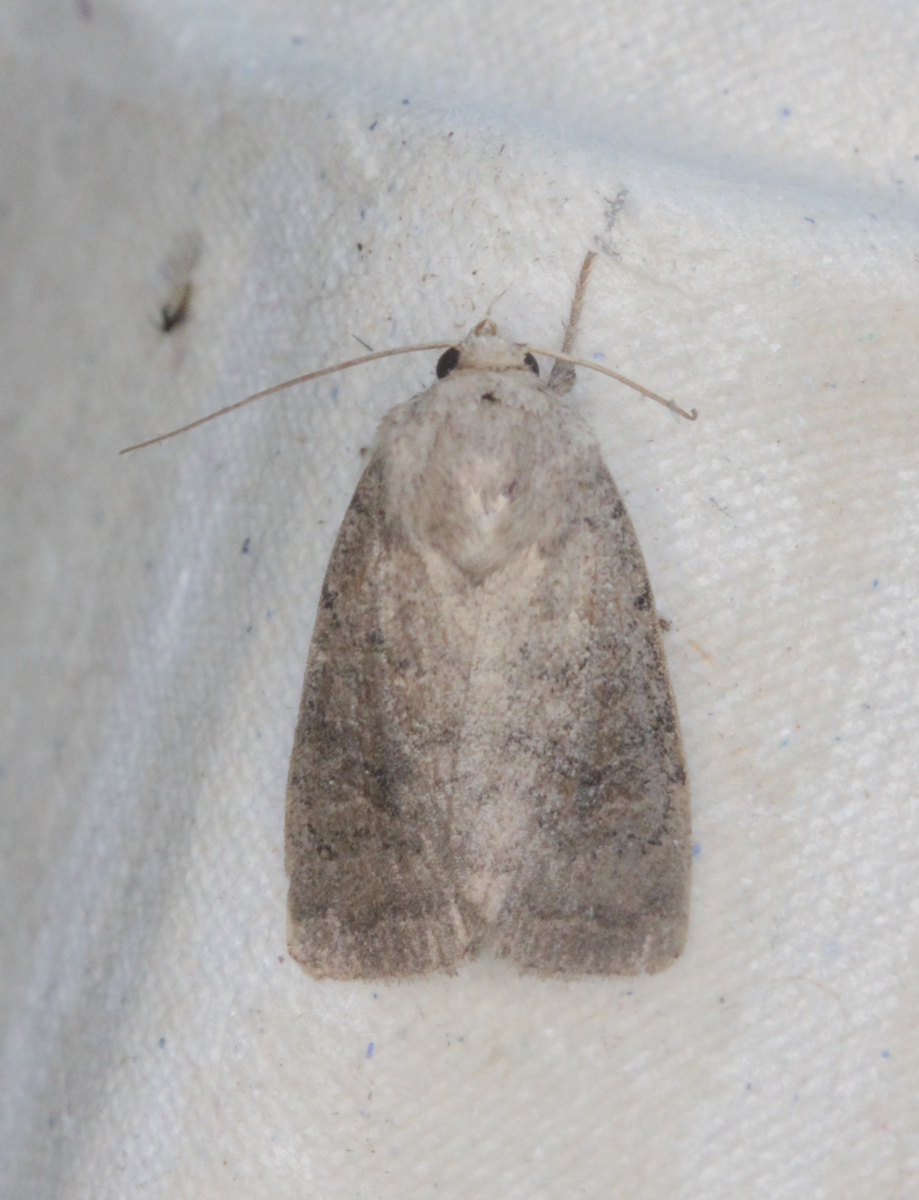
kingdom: Animalia
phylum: Arthropoda
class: Insecta
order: Lepidoptera
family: Noctuidae
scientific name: Noctuidae
